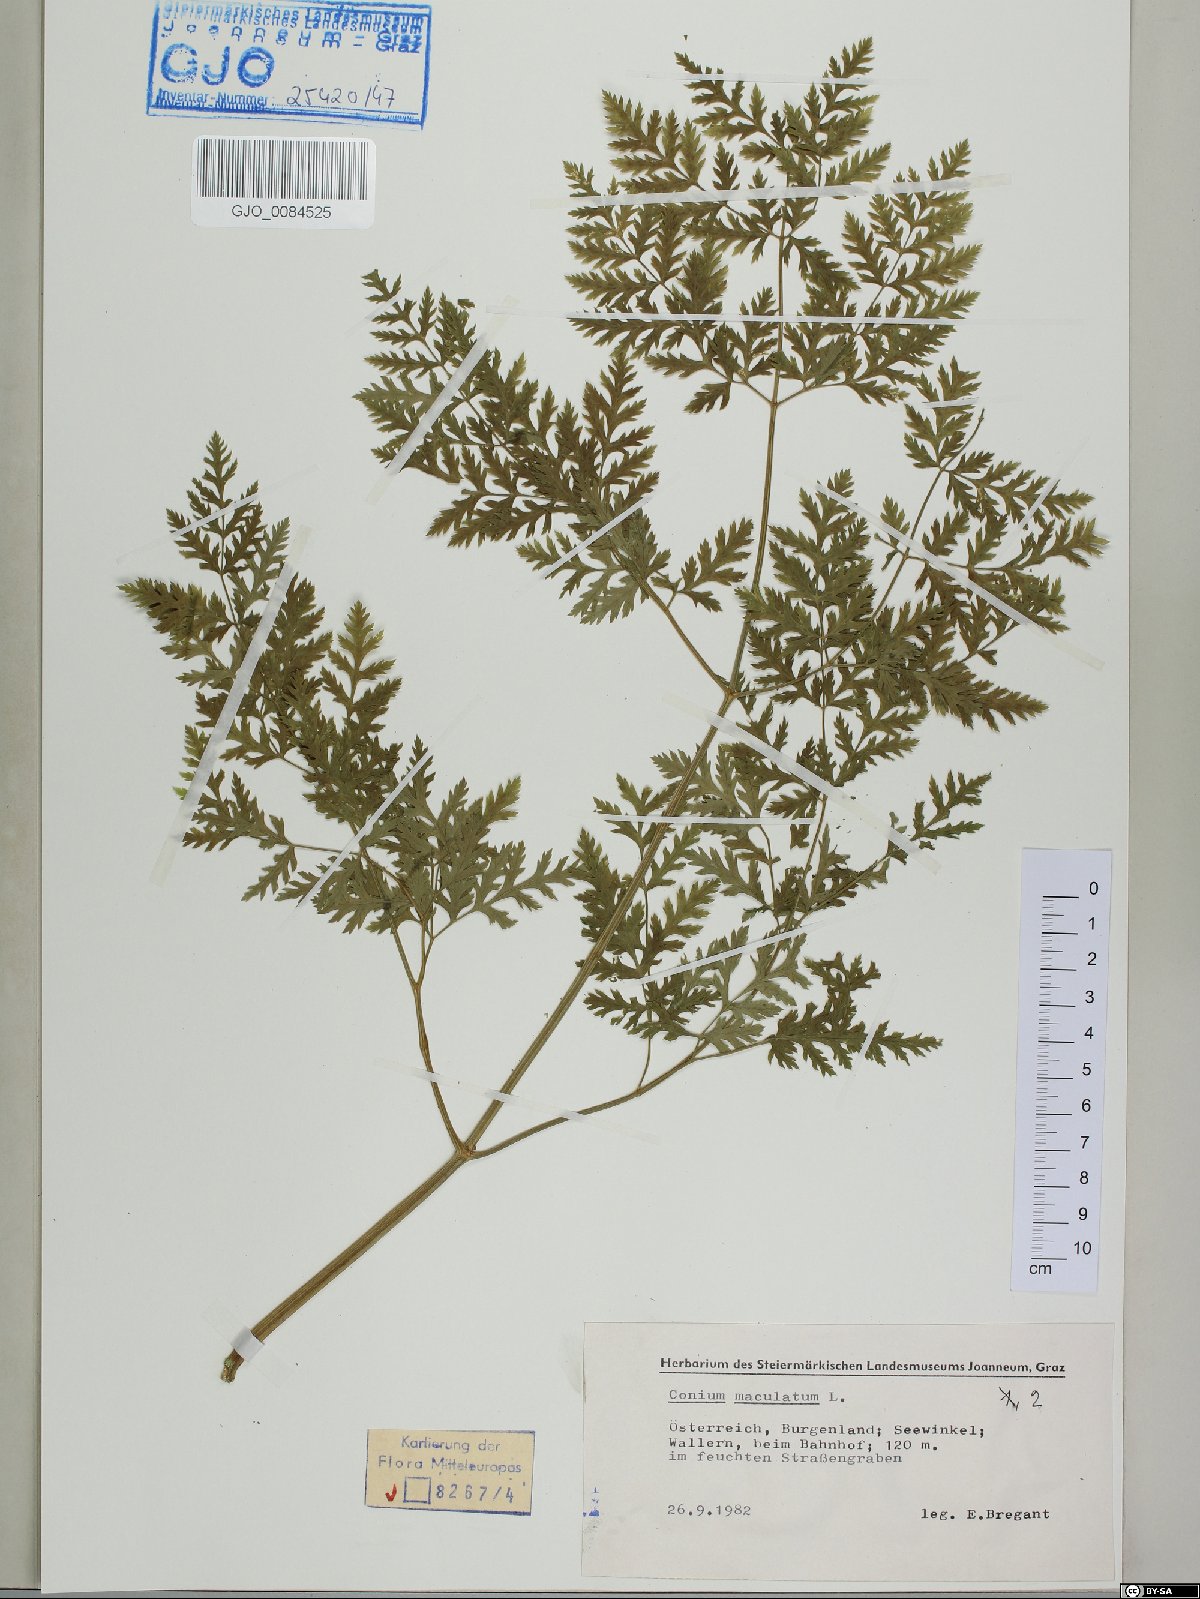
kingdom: Plantae
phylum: Tracheophyta
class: Magnoliopsida
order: Apiales
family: Apiaceae
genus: Conium
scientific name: Conium maculatum
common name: Hemlock
